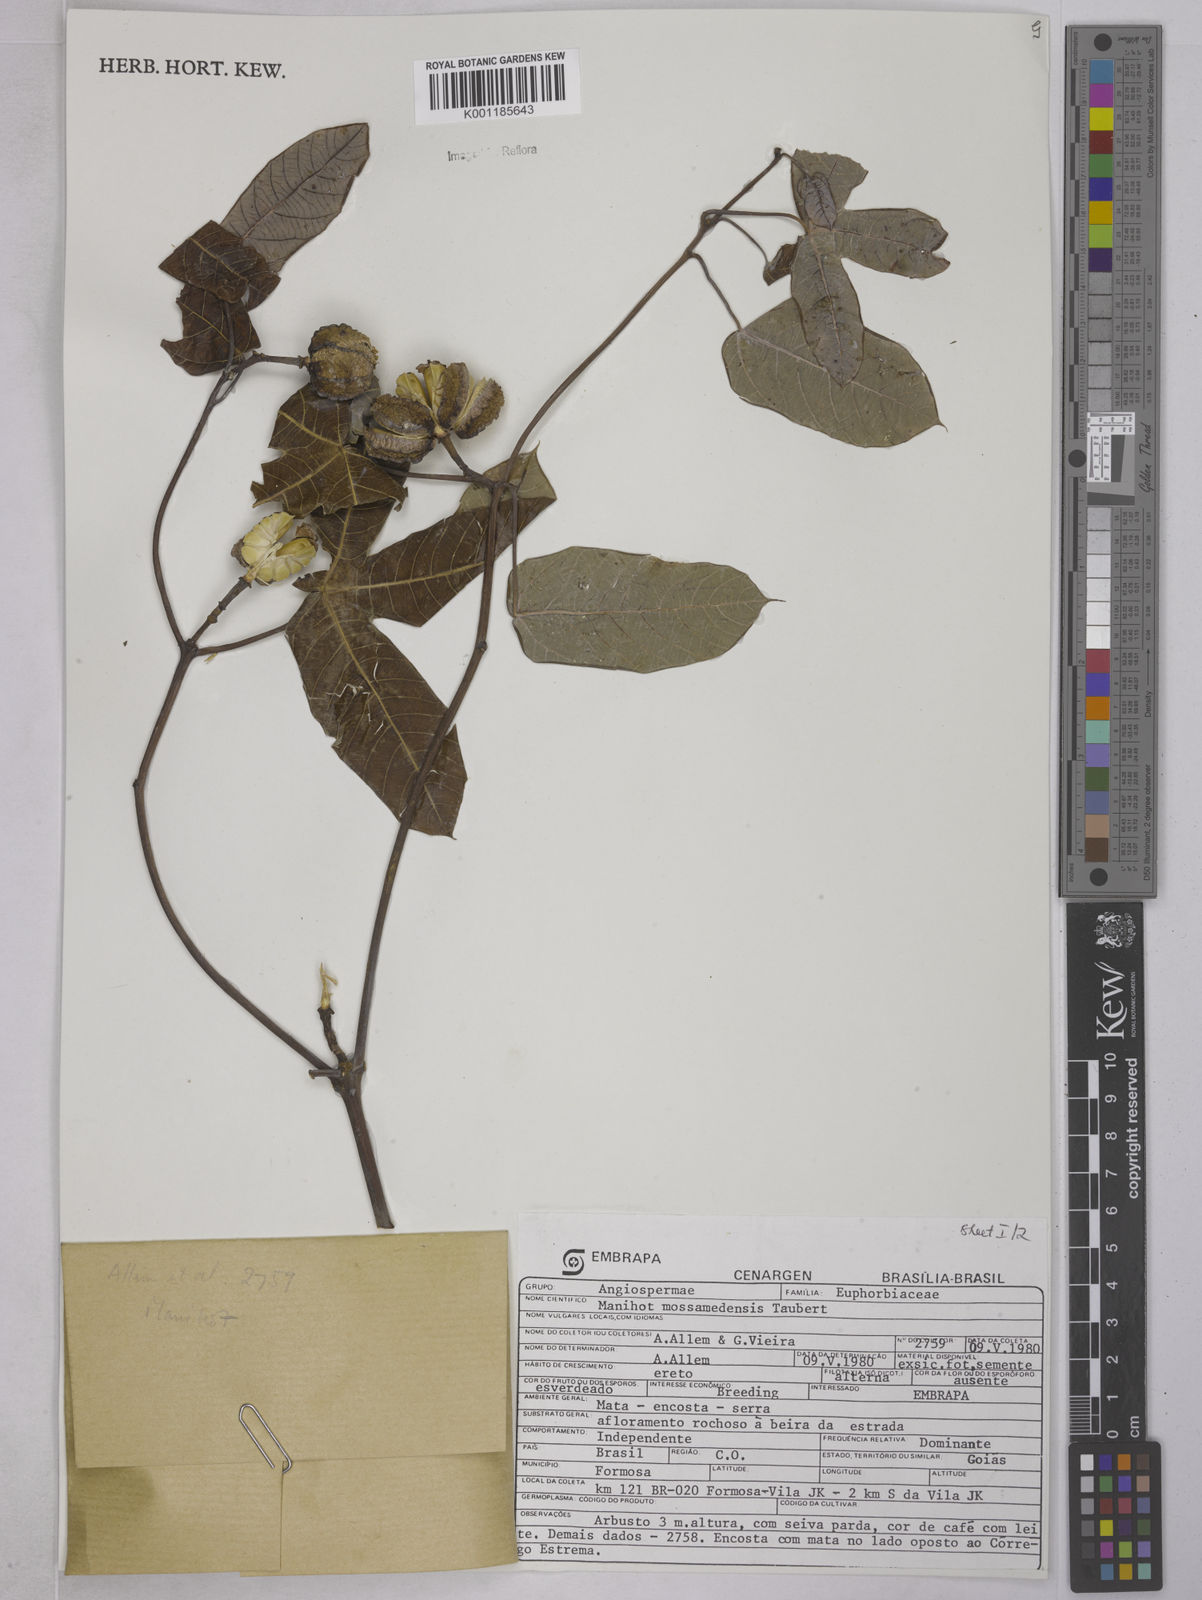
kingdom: Plantae
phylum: Tracheophyta
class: Magnoliopsida
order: Malpighiales
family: Euphorbiaceae
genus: Manihot
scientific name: Manihot cecropiifolia
